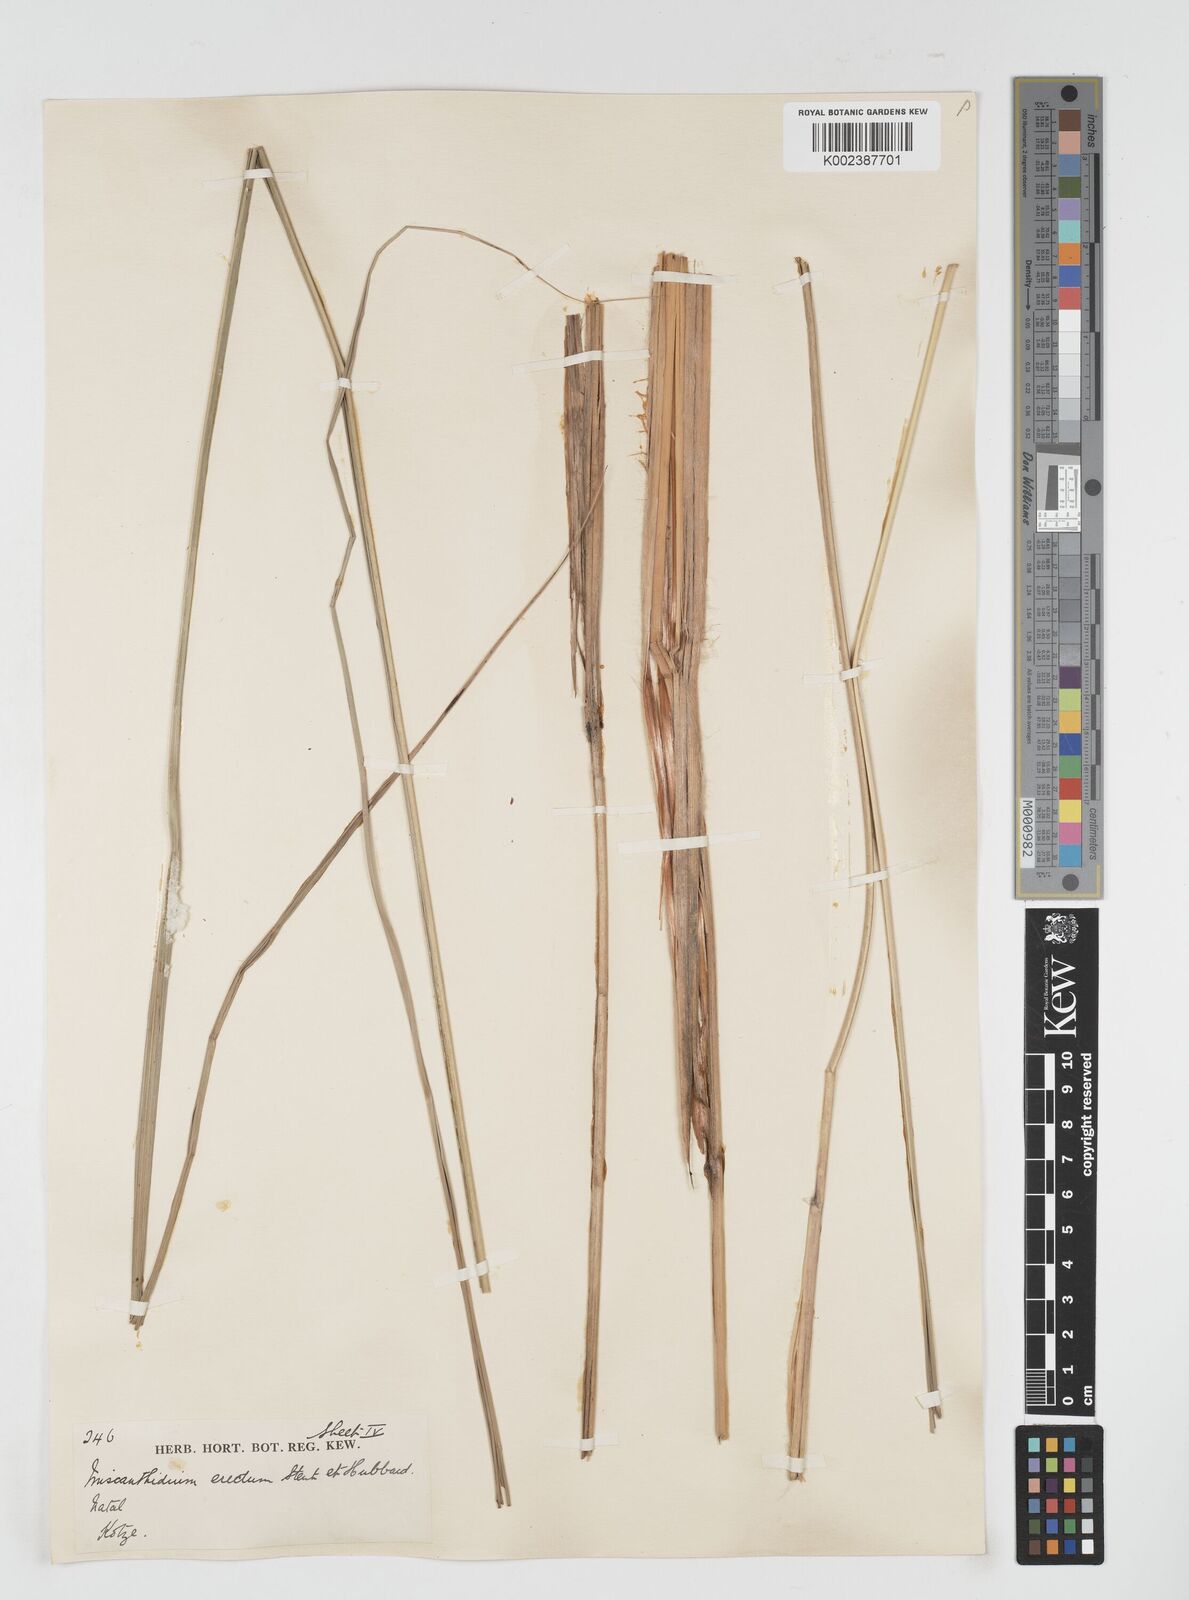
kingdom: Plantae
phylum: Tracheophyta
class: Liliopsida
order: Poales
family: Poaceae
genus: Miscanthus
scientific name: Miscanthus ecklonii
